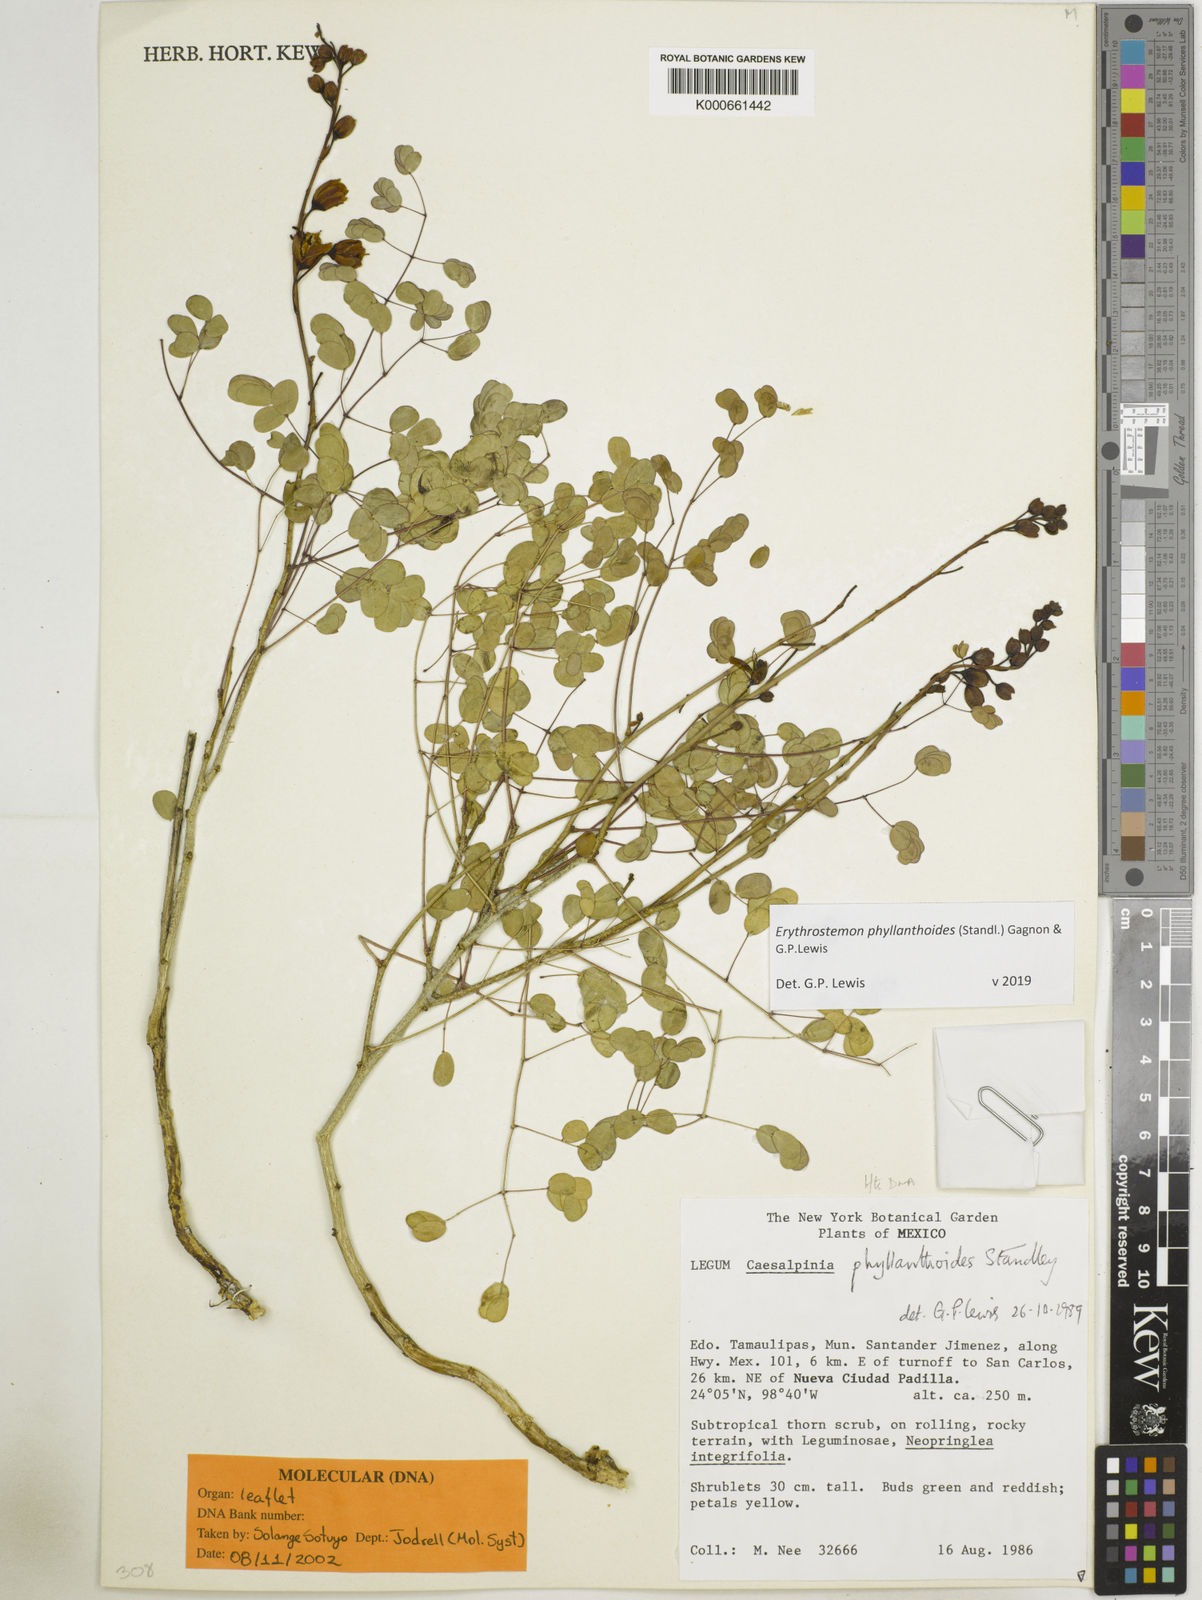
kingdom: Plantae
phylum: Tracheophyta
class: Magnoliopsida
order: Fabales
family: Fabaceae
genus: Erythrostemon
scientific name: Erythrostemon phyllanthoides
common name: Creeping bird of paradise
